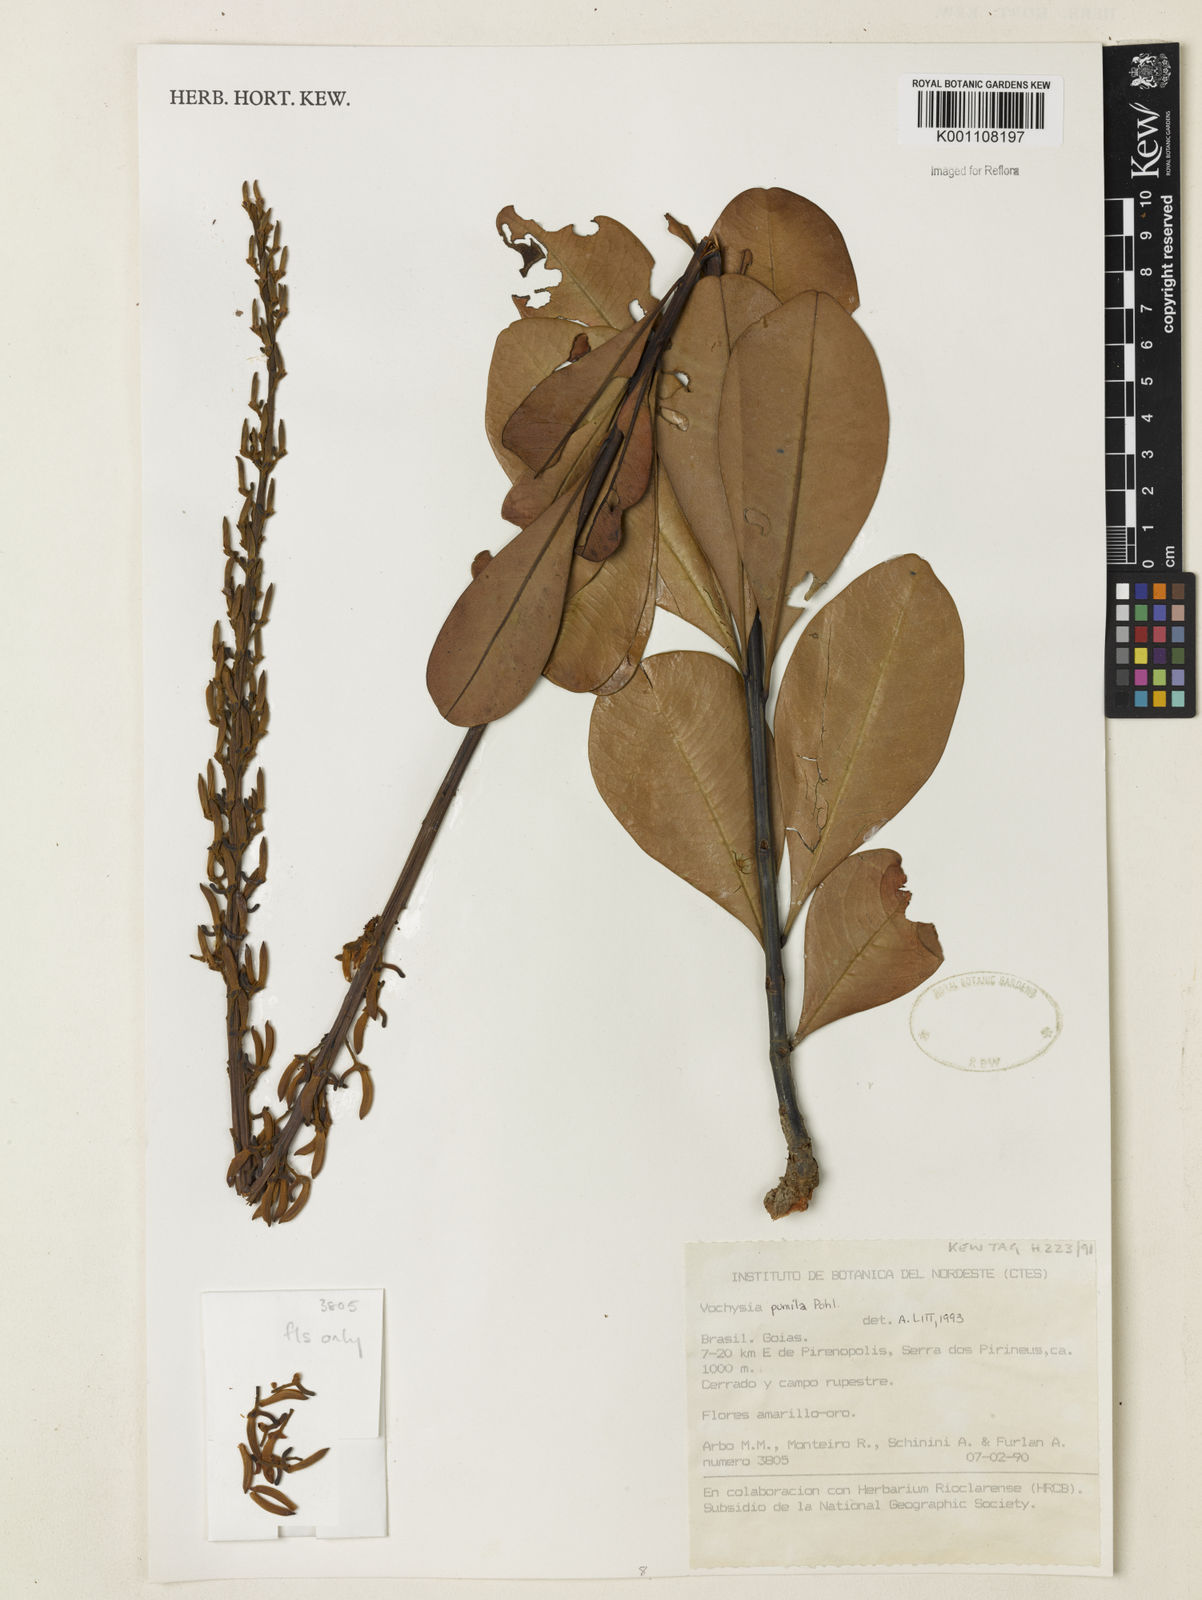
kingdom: Plantae
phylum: Tracheophyta
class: Magnoliopsida
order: Myrtales
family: Vochysiaceae
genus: Vochysia
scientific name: Vochysia pumila
